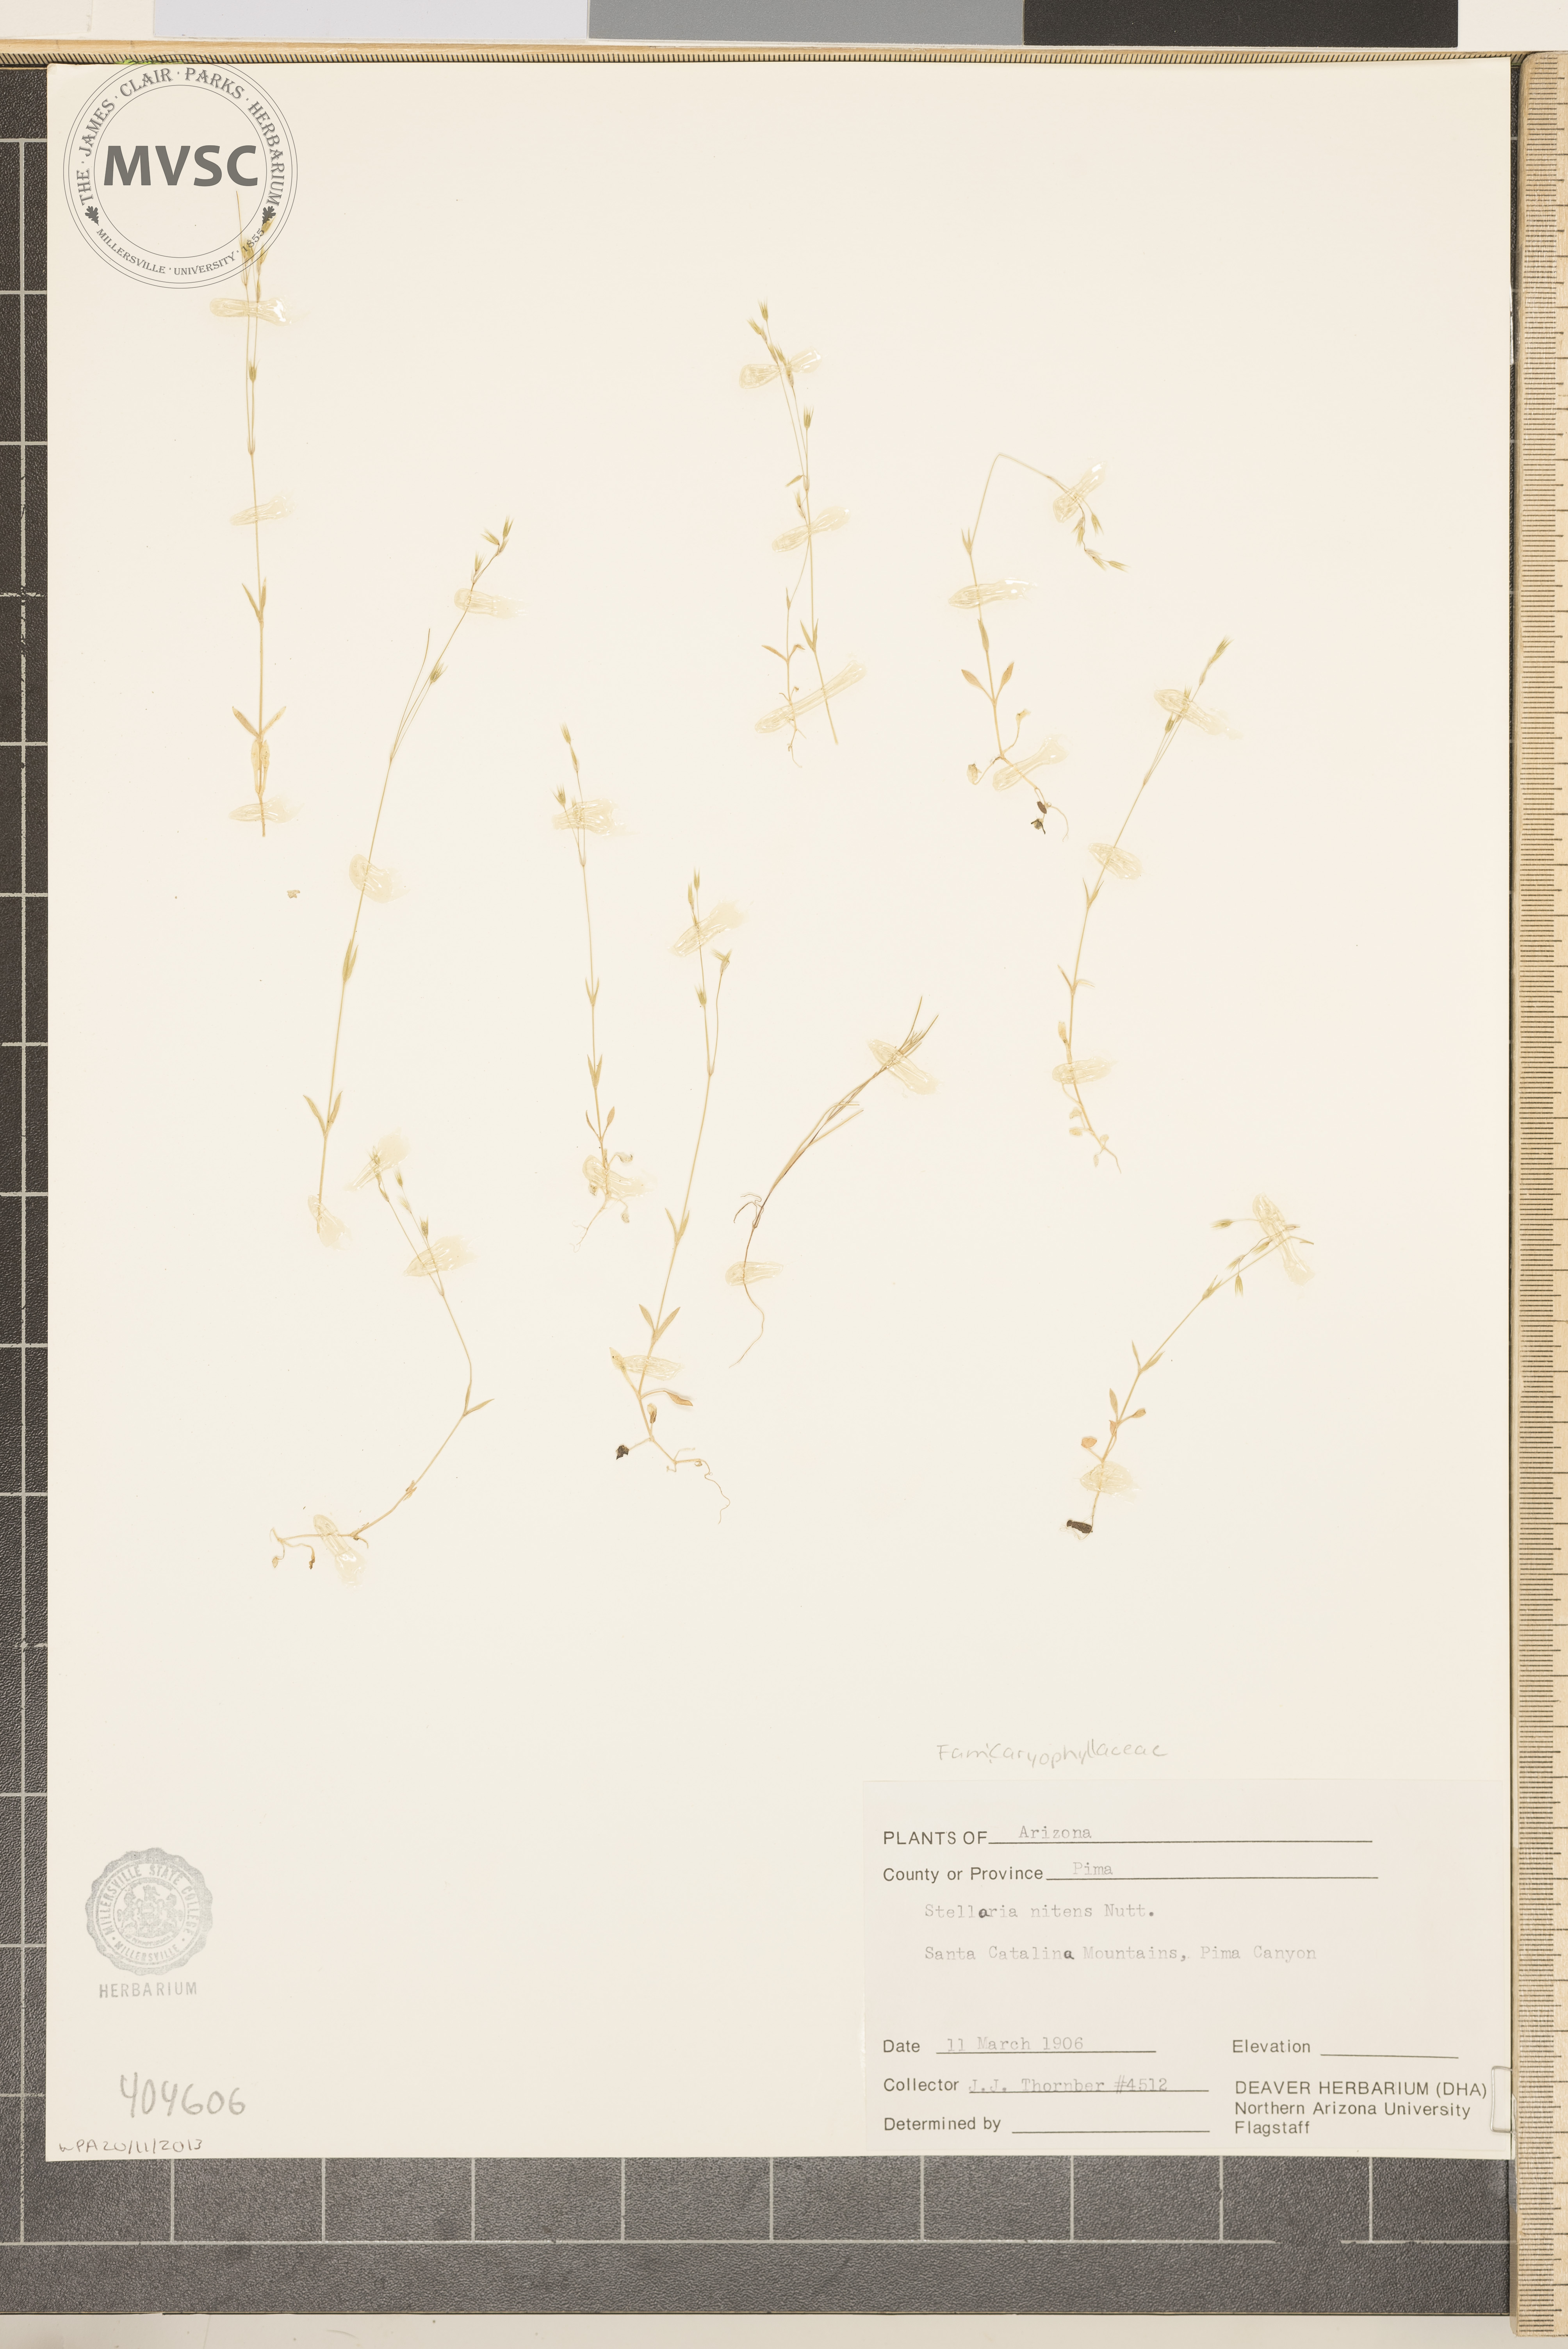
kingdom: Plantae
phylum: Tracheophyta
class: Magnoliopsida
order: Caryophyllales
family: Caryophyllaceae
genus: Stellaria
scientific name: Stellaria nitens
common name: Shining starwort
